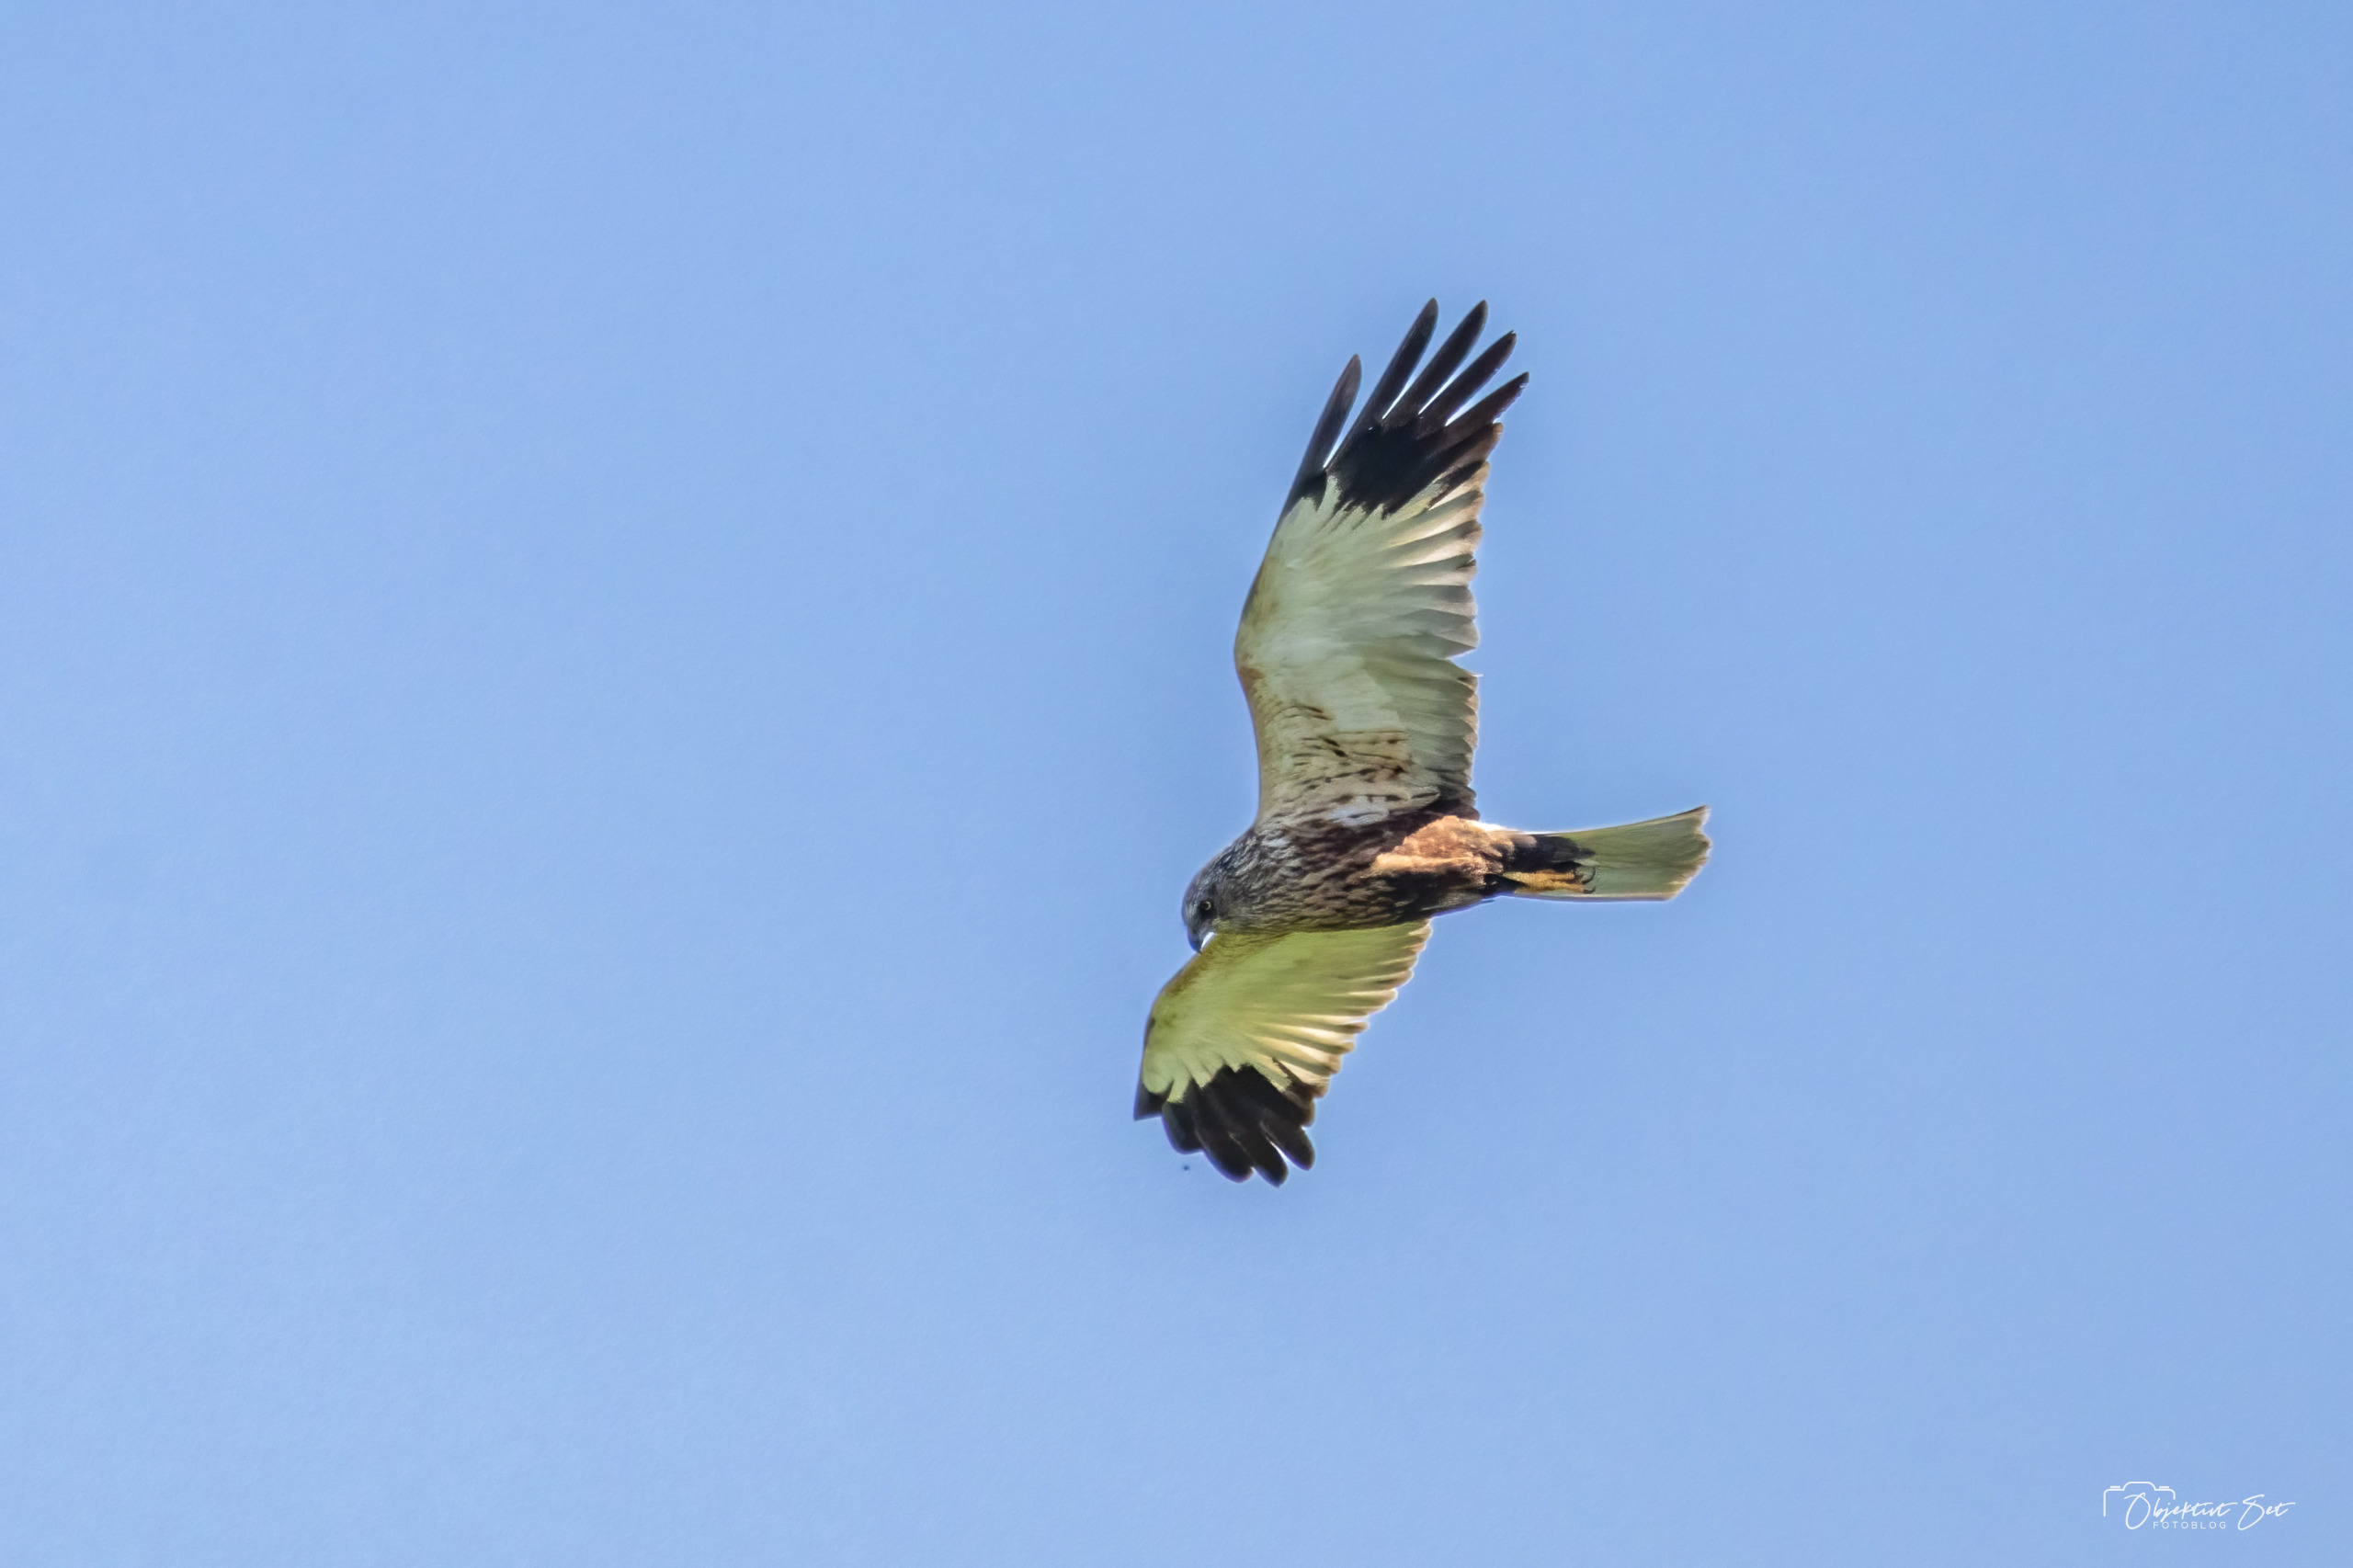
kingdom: Animalia
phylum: Chordata
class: Aves
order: Accipitriformes
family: Accipitridae
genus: Circus
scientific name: Circus aeruginosus
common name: Rørhøg
